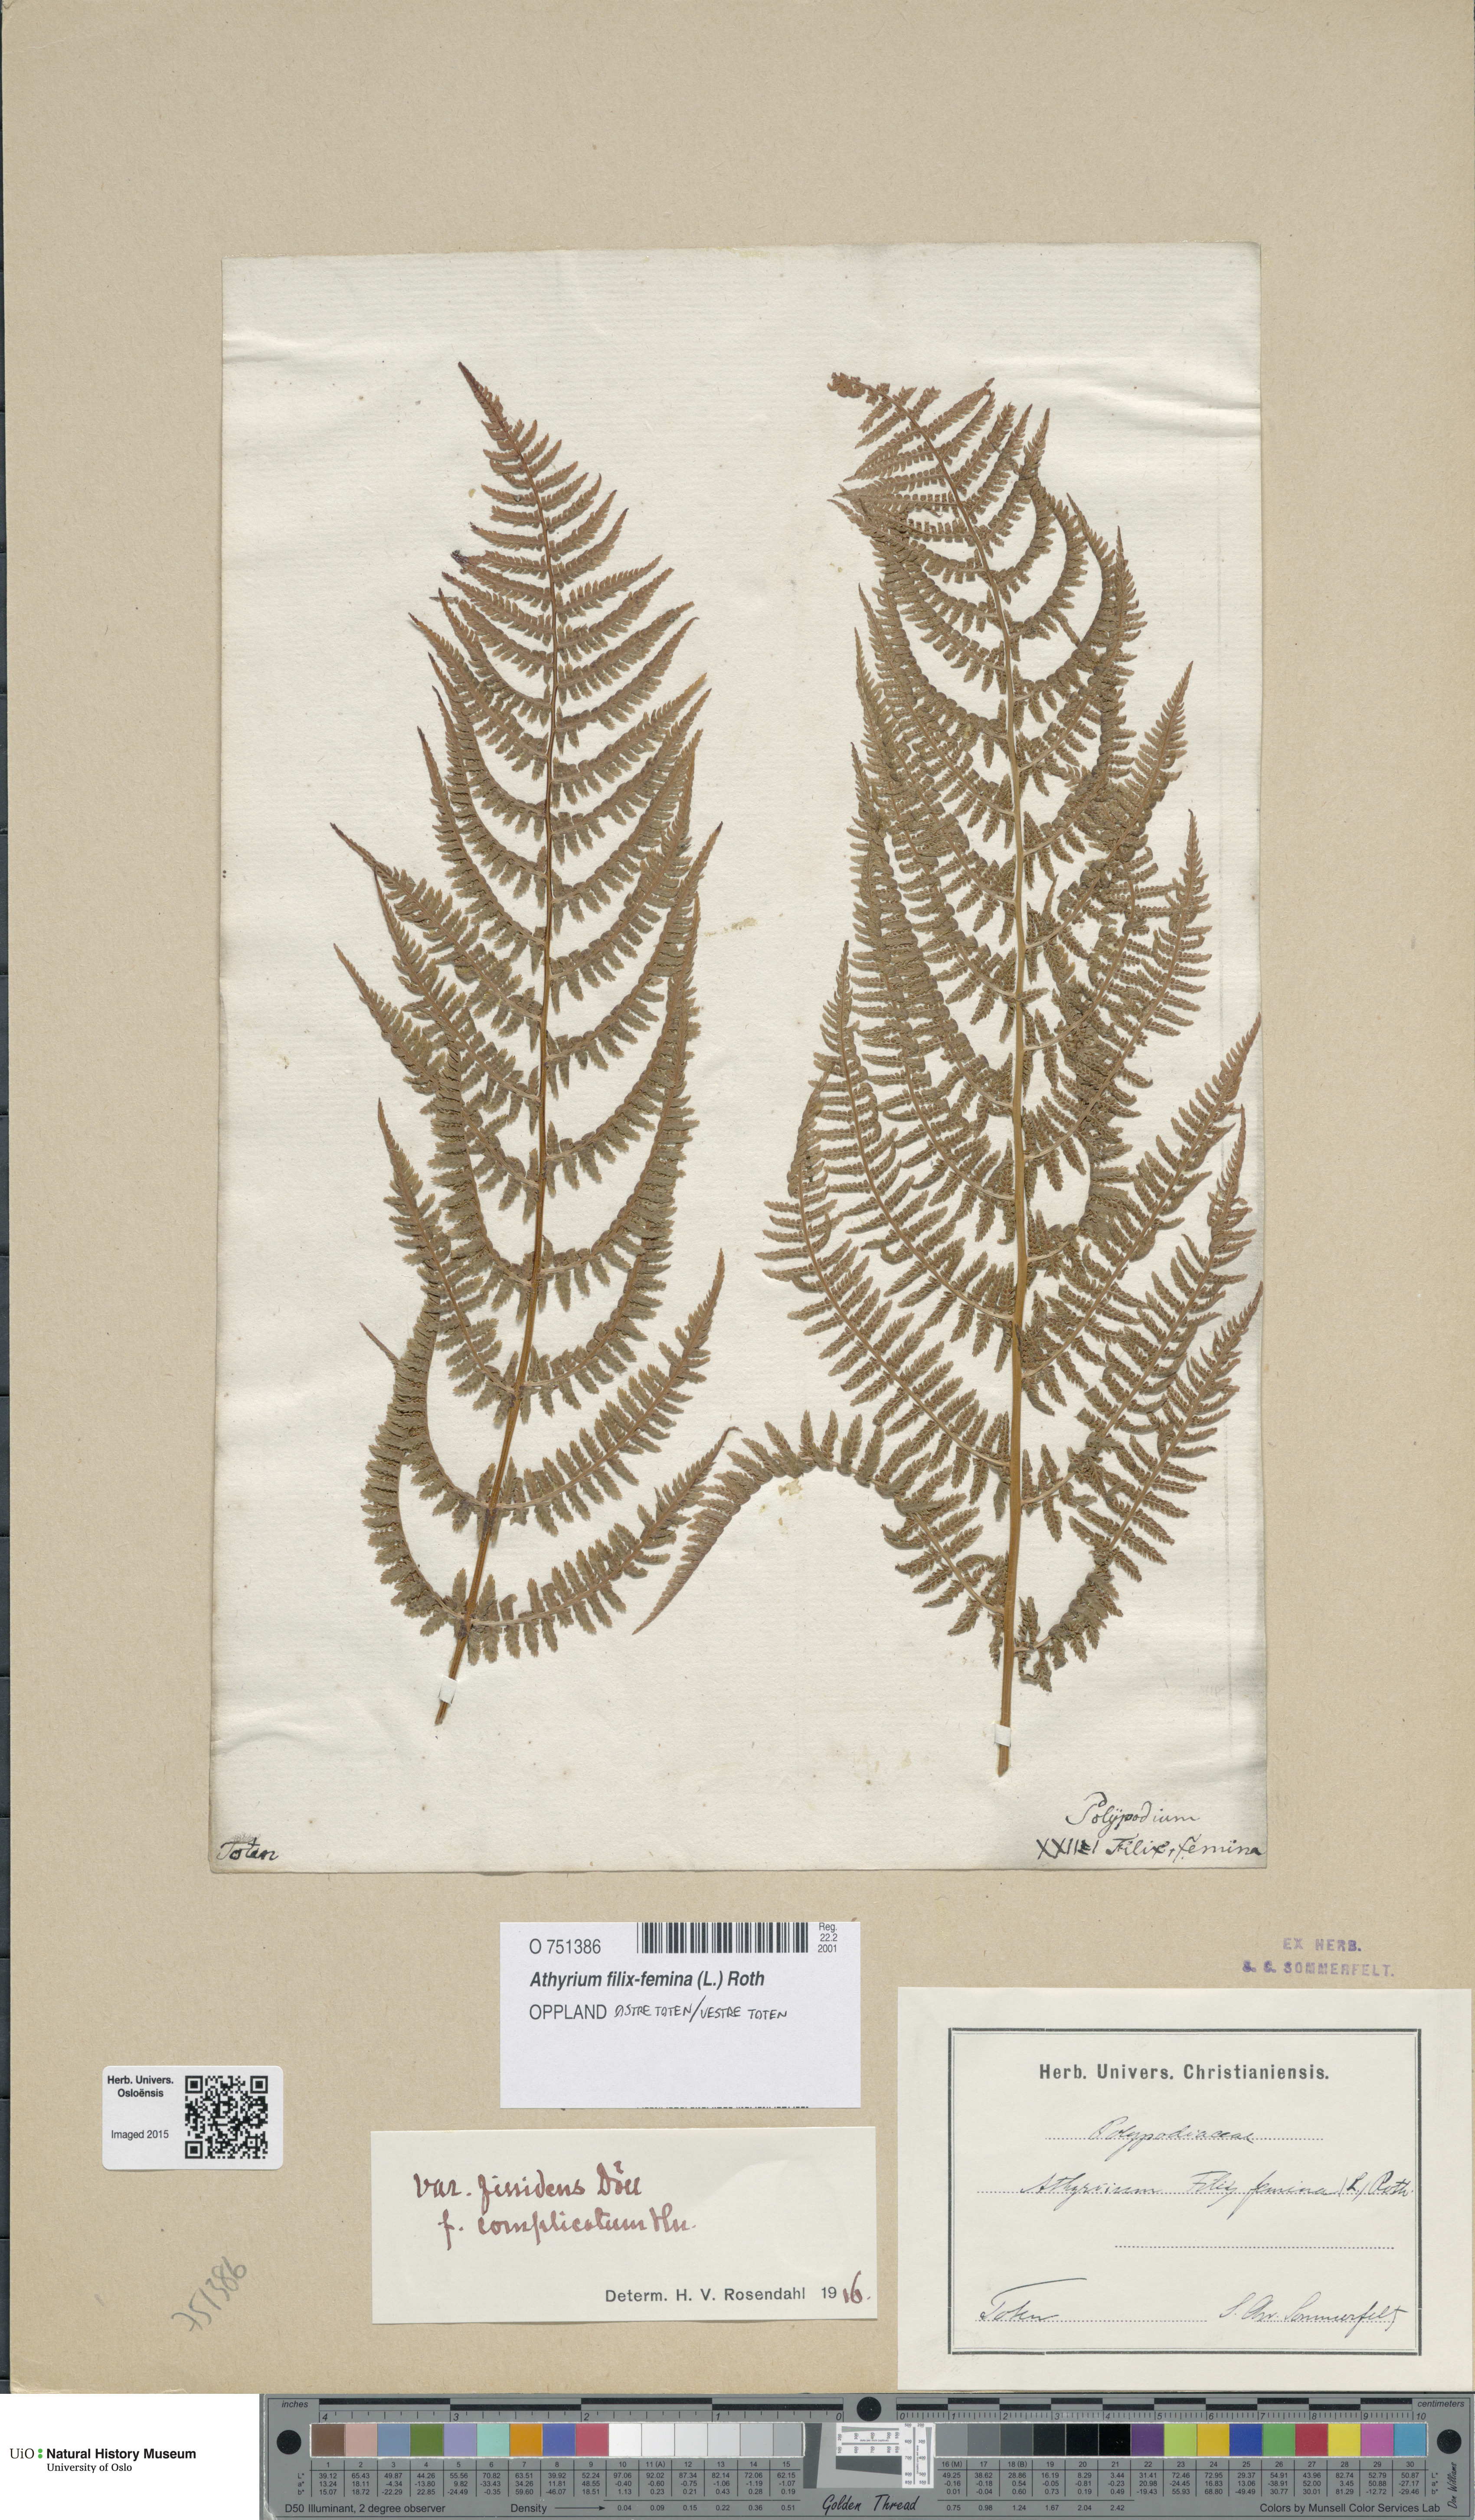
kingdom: Plantae
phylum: Tracheophyta
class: Polypodiopsida
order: Polypodiales
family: Athyriaceae
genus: Athyrium
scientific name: Athyrium filix-femina
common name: Lady fern
